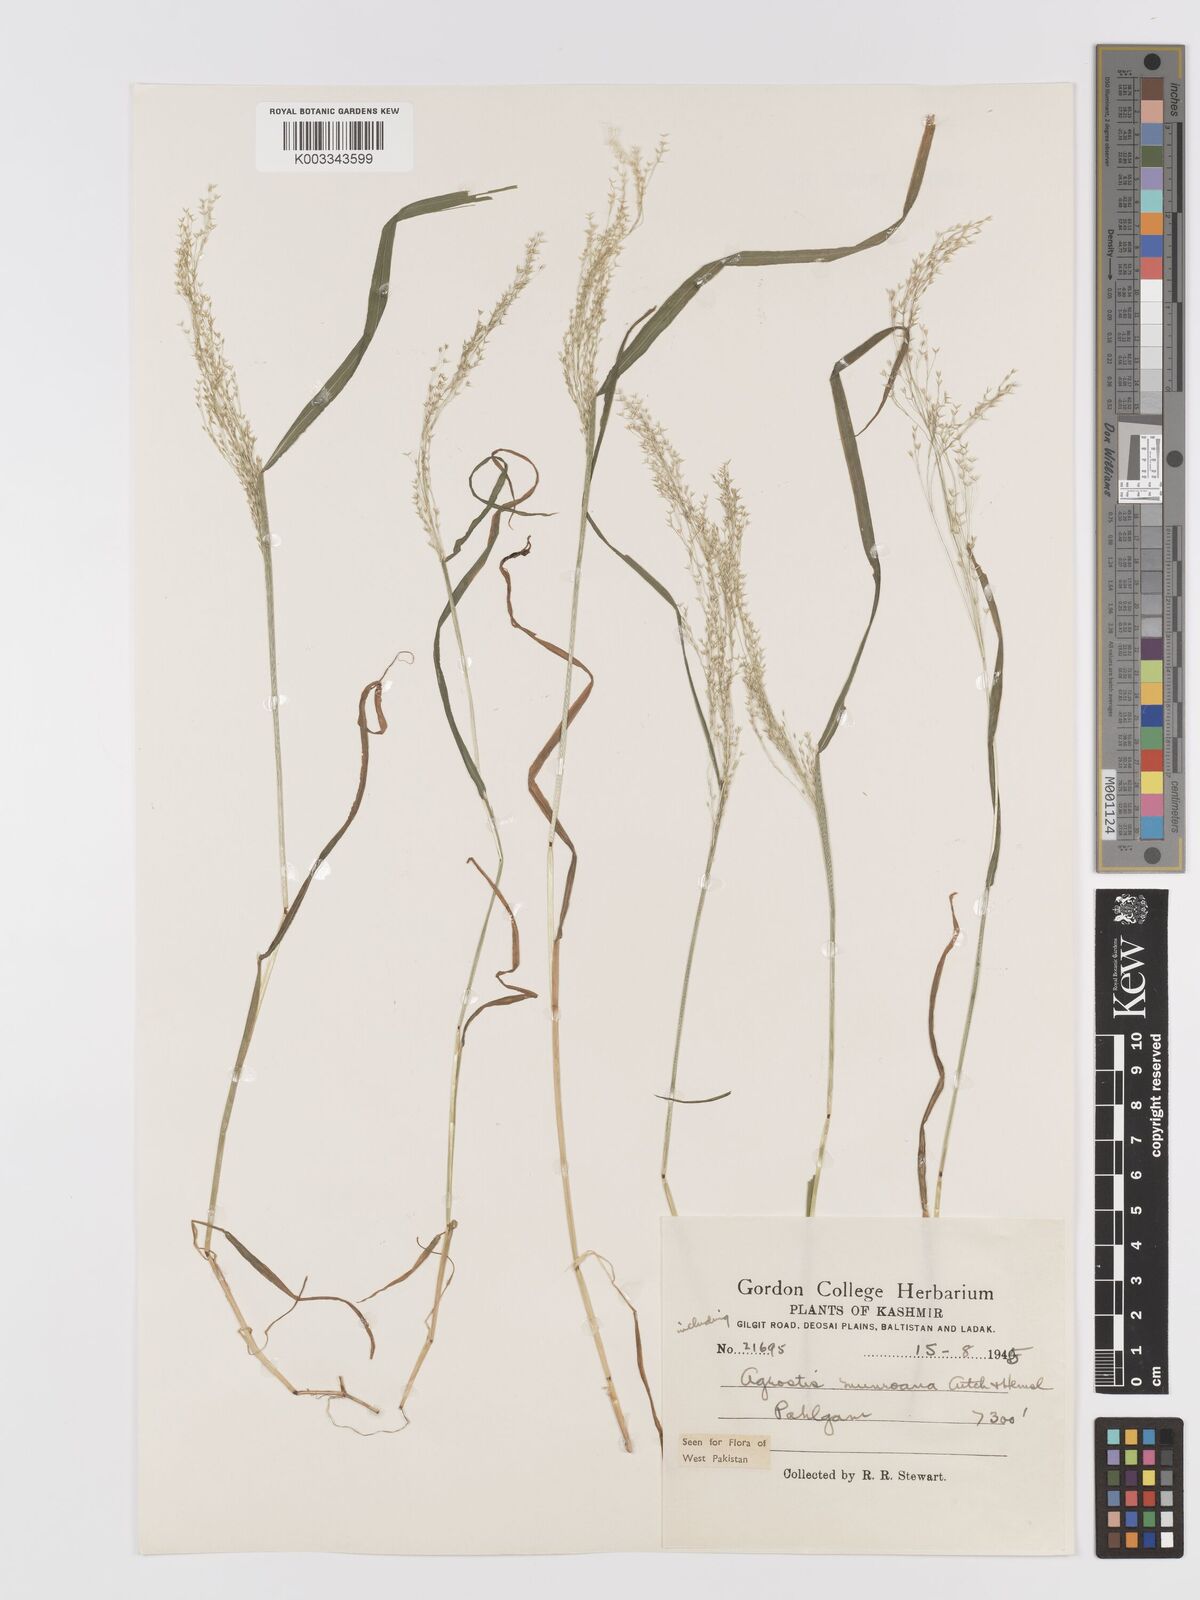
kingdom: Plantae
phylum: Tracheophyta
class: Liliopsida
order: Poales
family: Poaceae
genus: Agrostis
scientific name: Agrostis munroana
